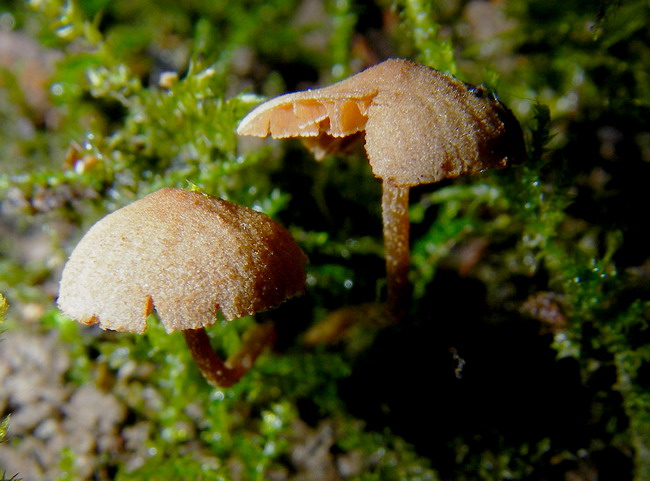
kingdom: Fungi
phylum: Basidiomycota
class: Agaricomycetes
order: Agaricales
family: Tubariaceae
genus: Flammulaster
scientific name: Flammulaster granulosus
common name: gulbrun grynskælhat
